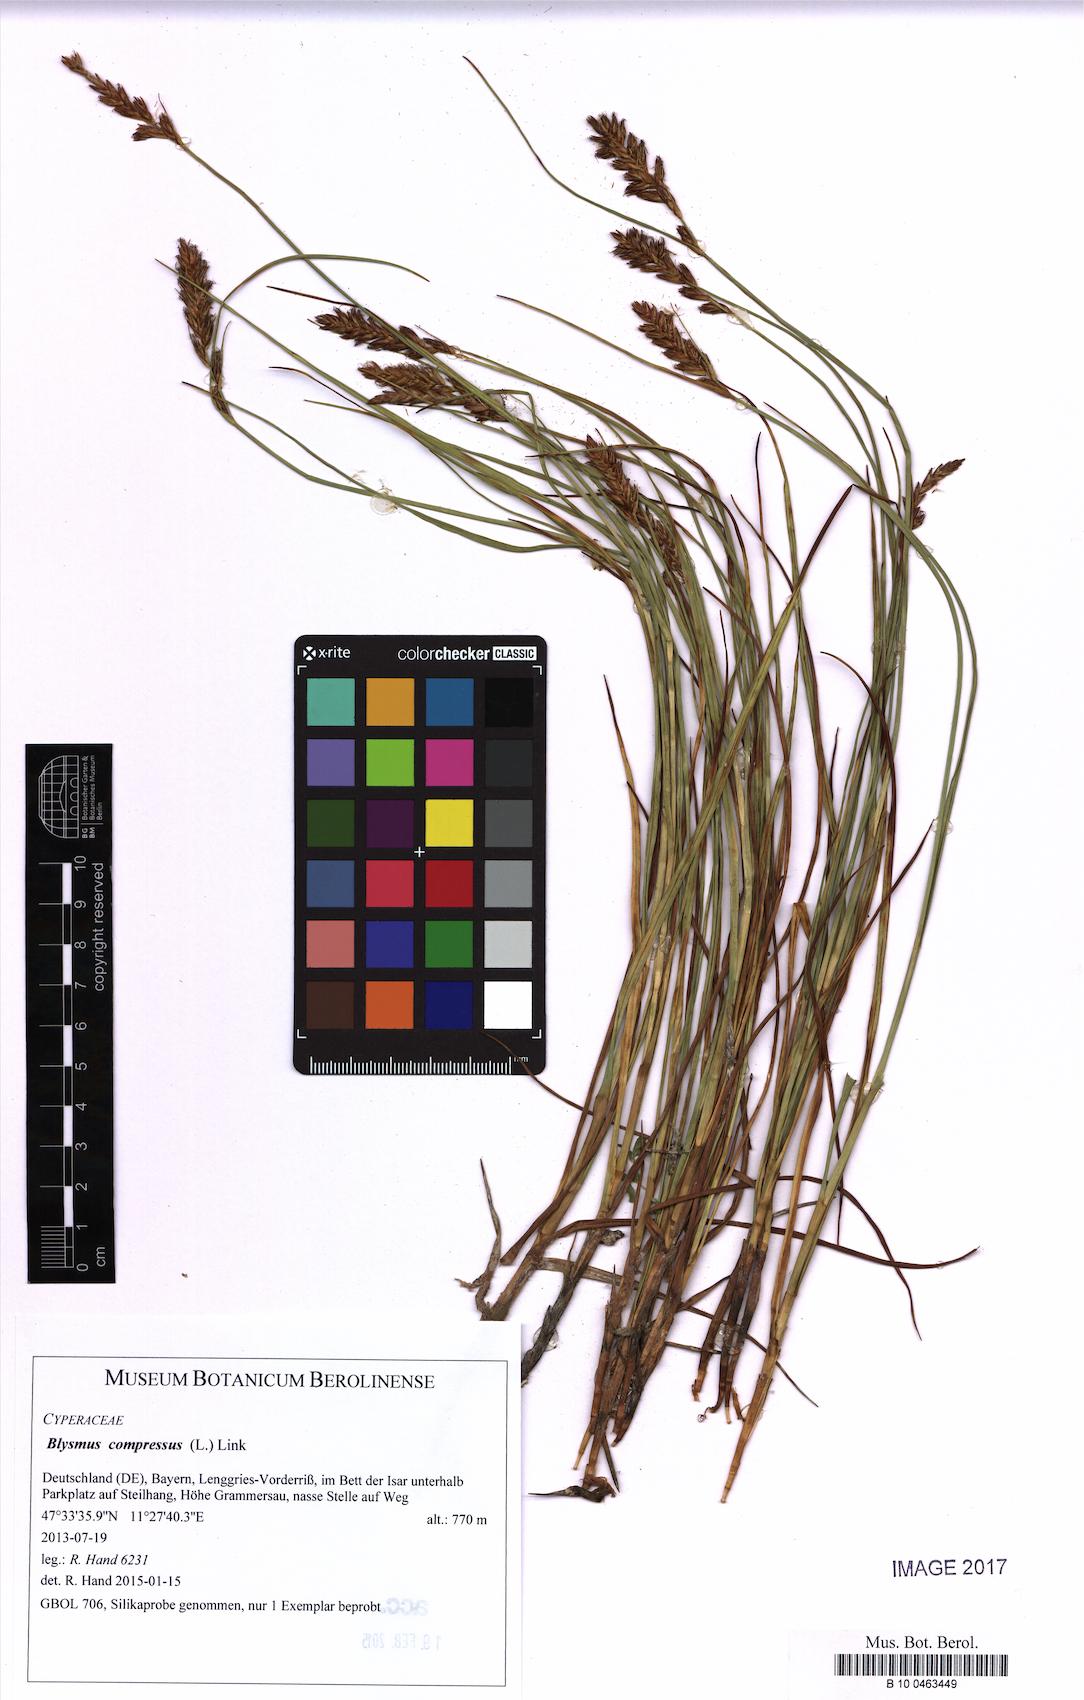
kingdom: Plantae
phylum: Tracheophyta
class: Liliopsida
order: Poales
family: Cyperaceae
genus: Blysmus
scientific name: Blysmus compressus
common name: Flat-sedge
